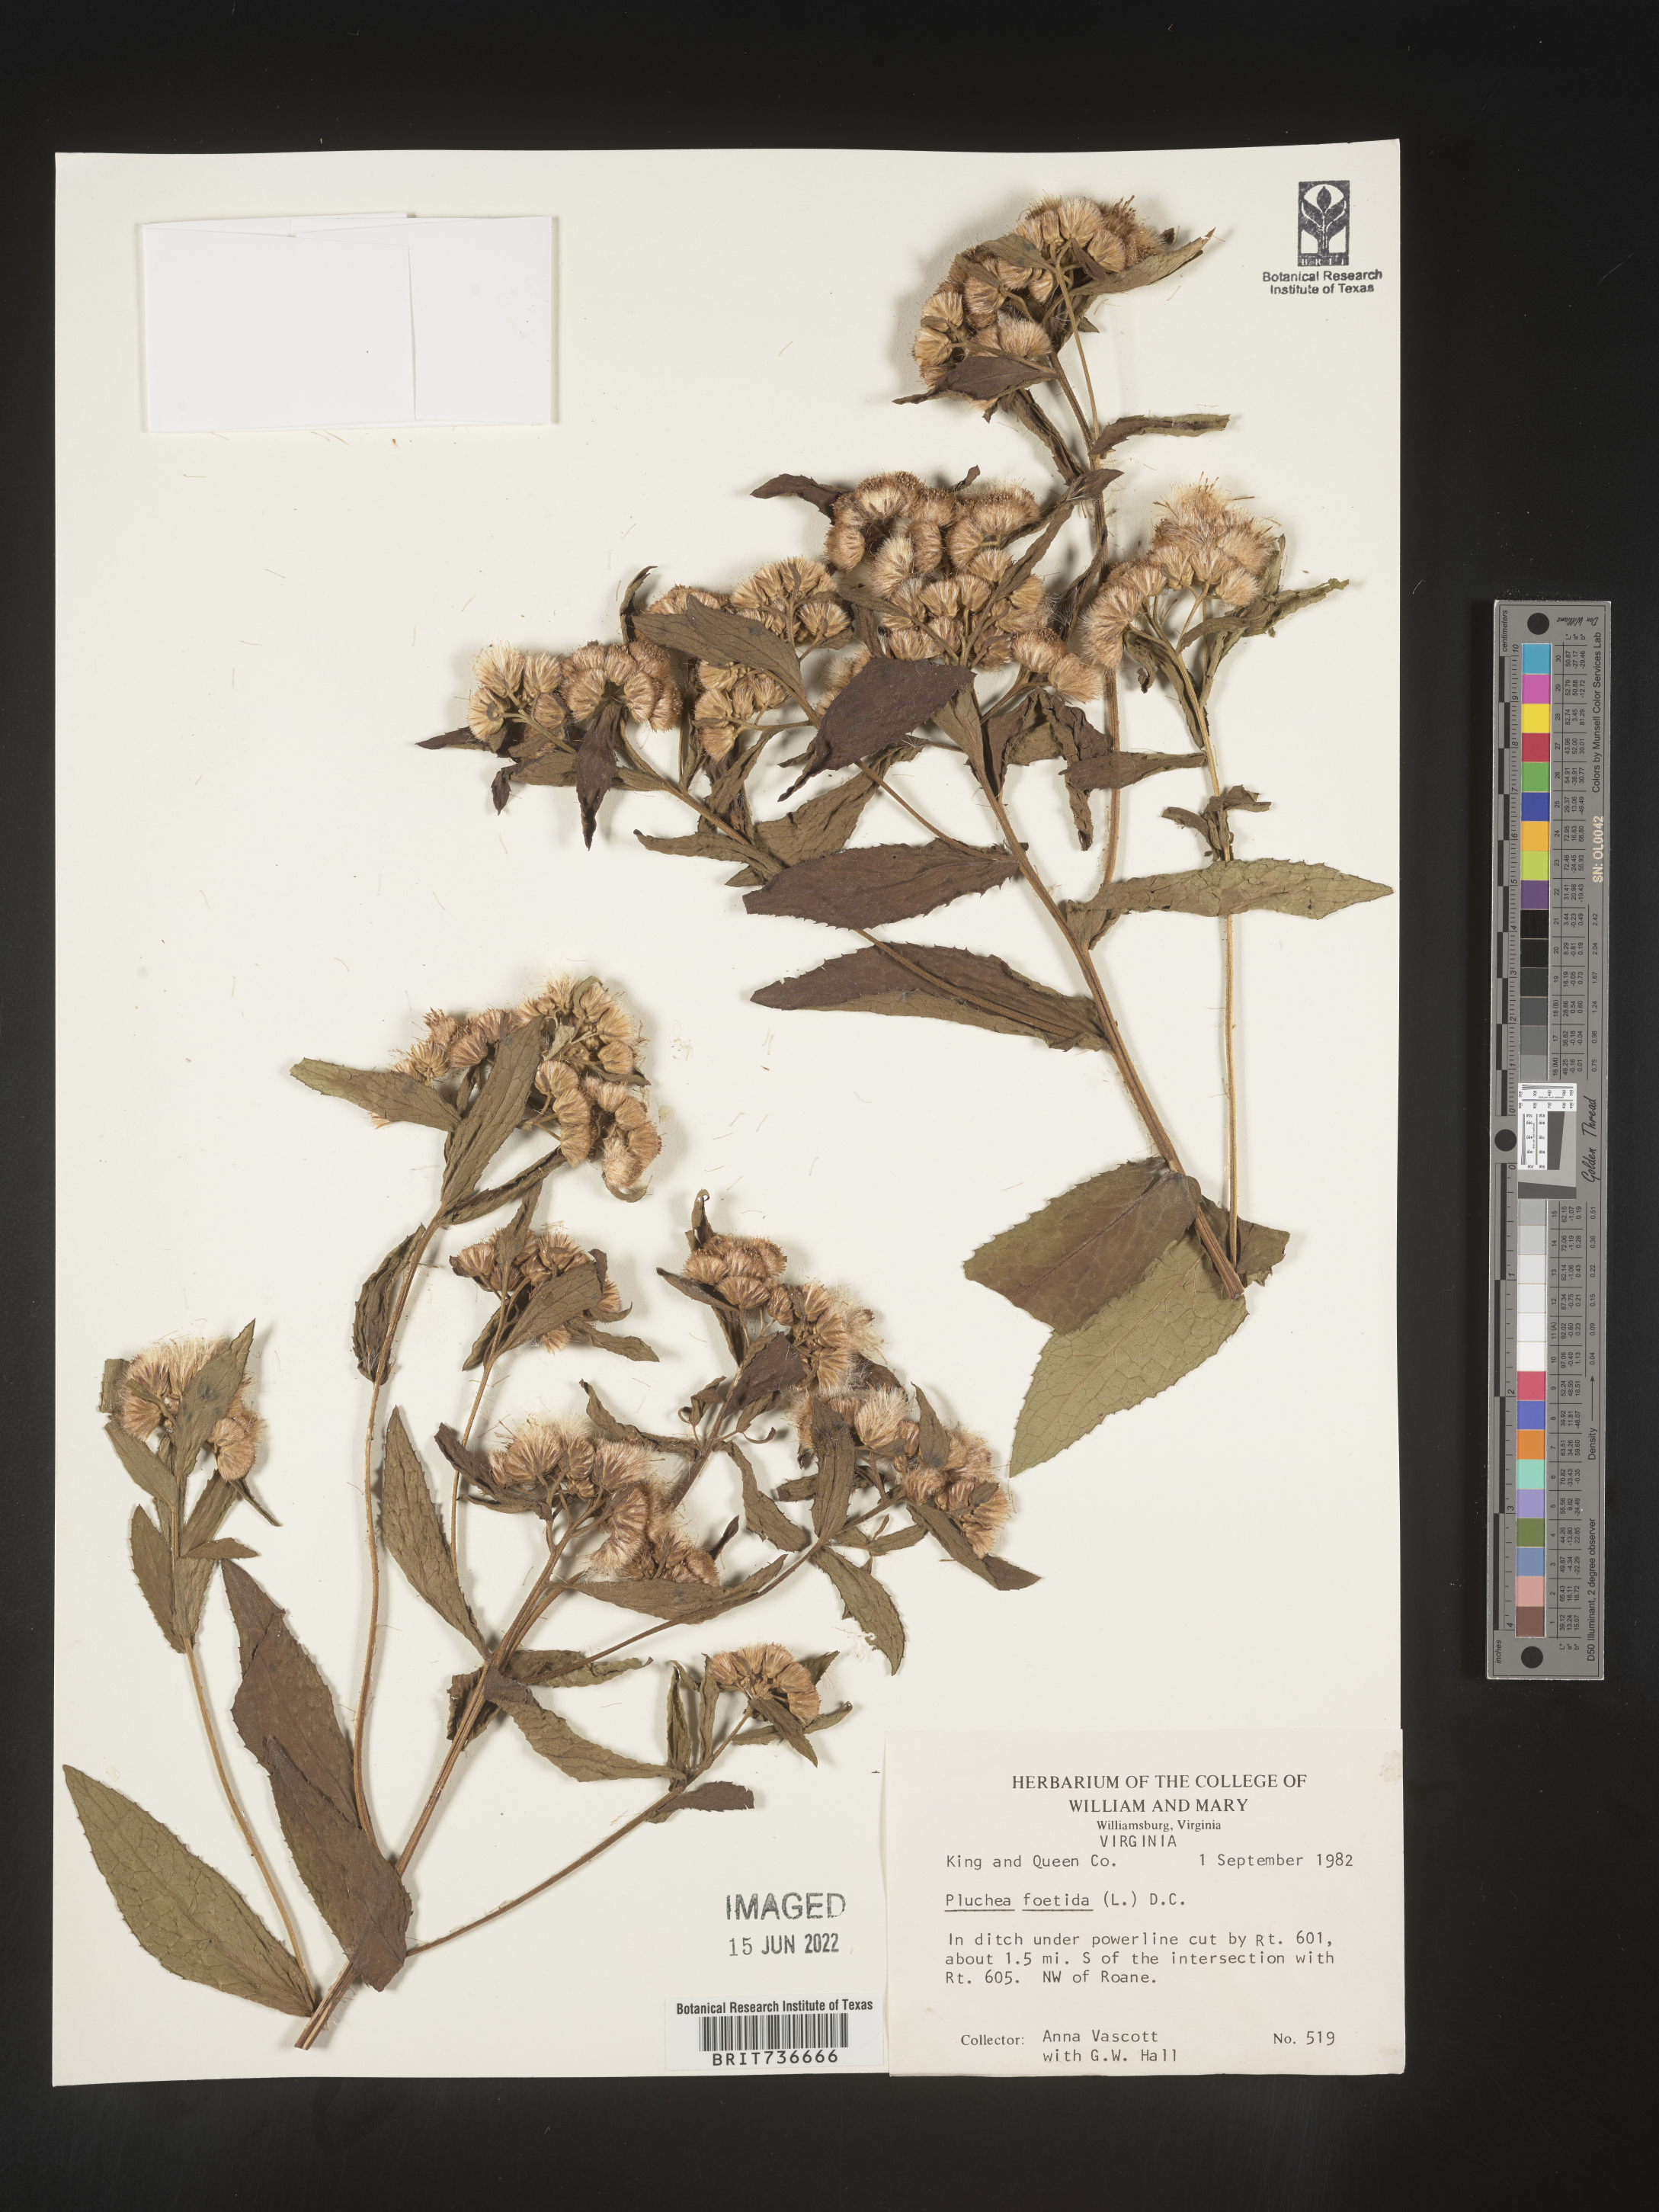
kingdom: Plantae
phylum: Tracheophyta
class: Magnoliopsida
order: Asterales
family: Asteraceae
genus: Pluchea
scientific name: Pluchea foetida
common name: Stinking camphorweed
